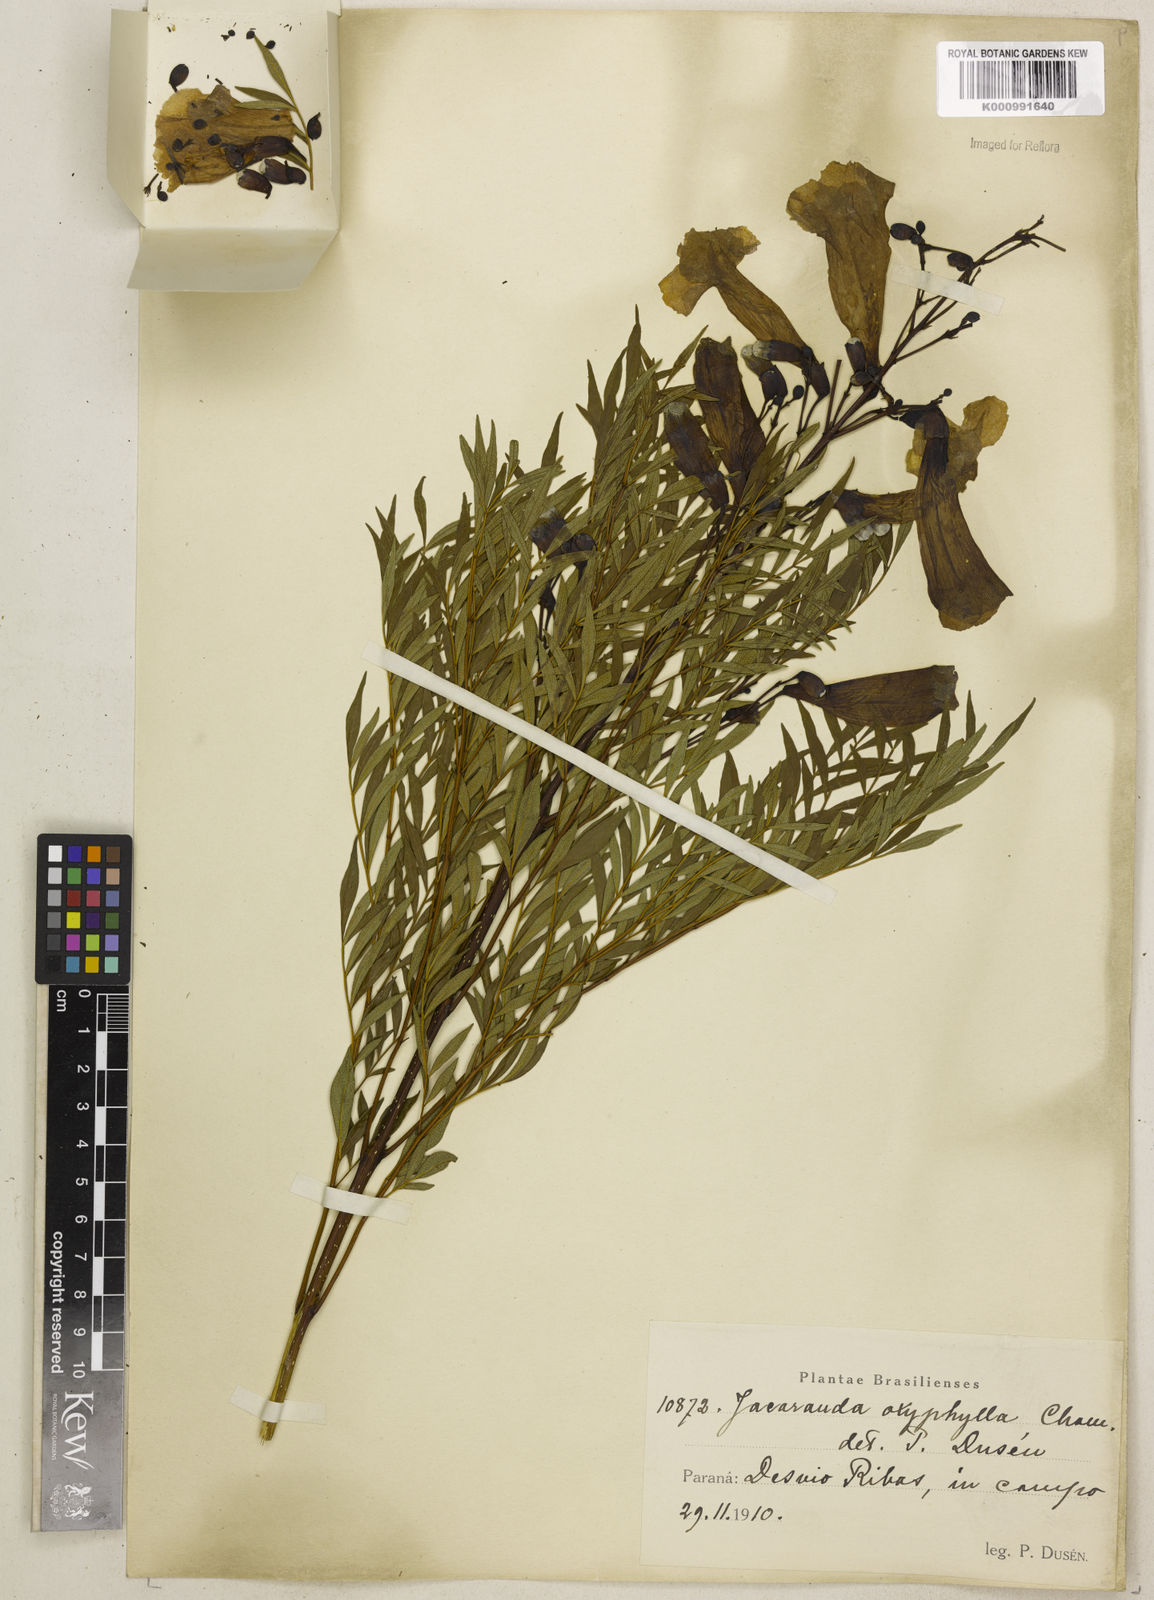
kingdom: Plantae
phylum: Tracheophyta
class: Magnoliopsida
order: Lamiales
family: Bignoniaceae
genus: Jacaranda
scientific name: Jacaranda caroba
